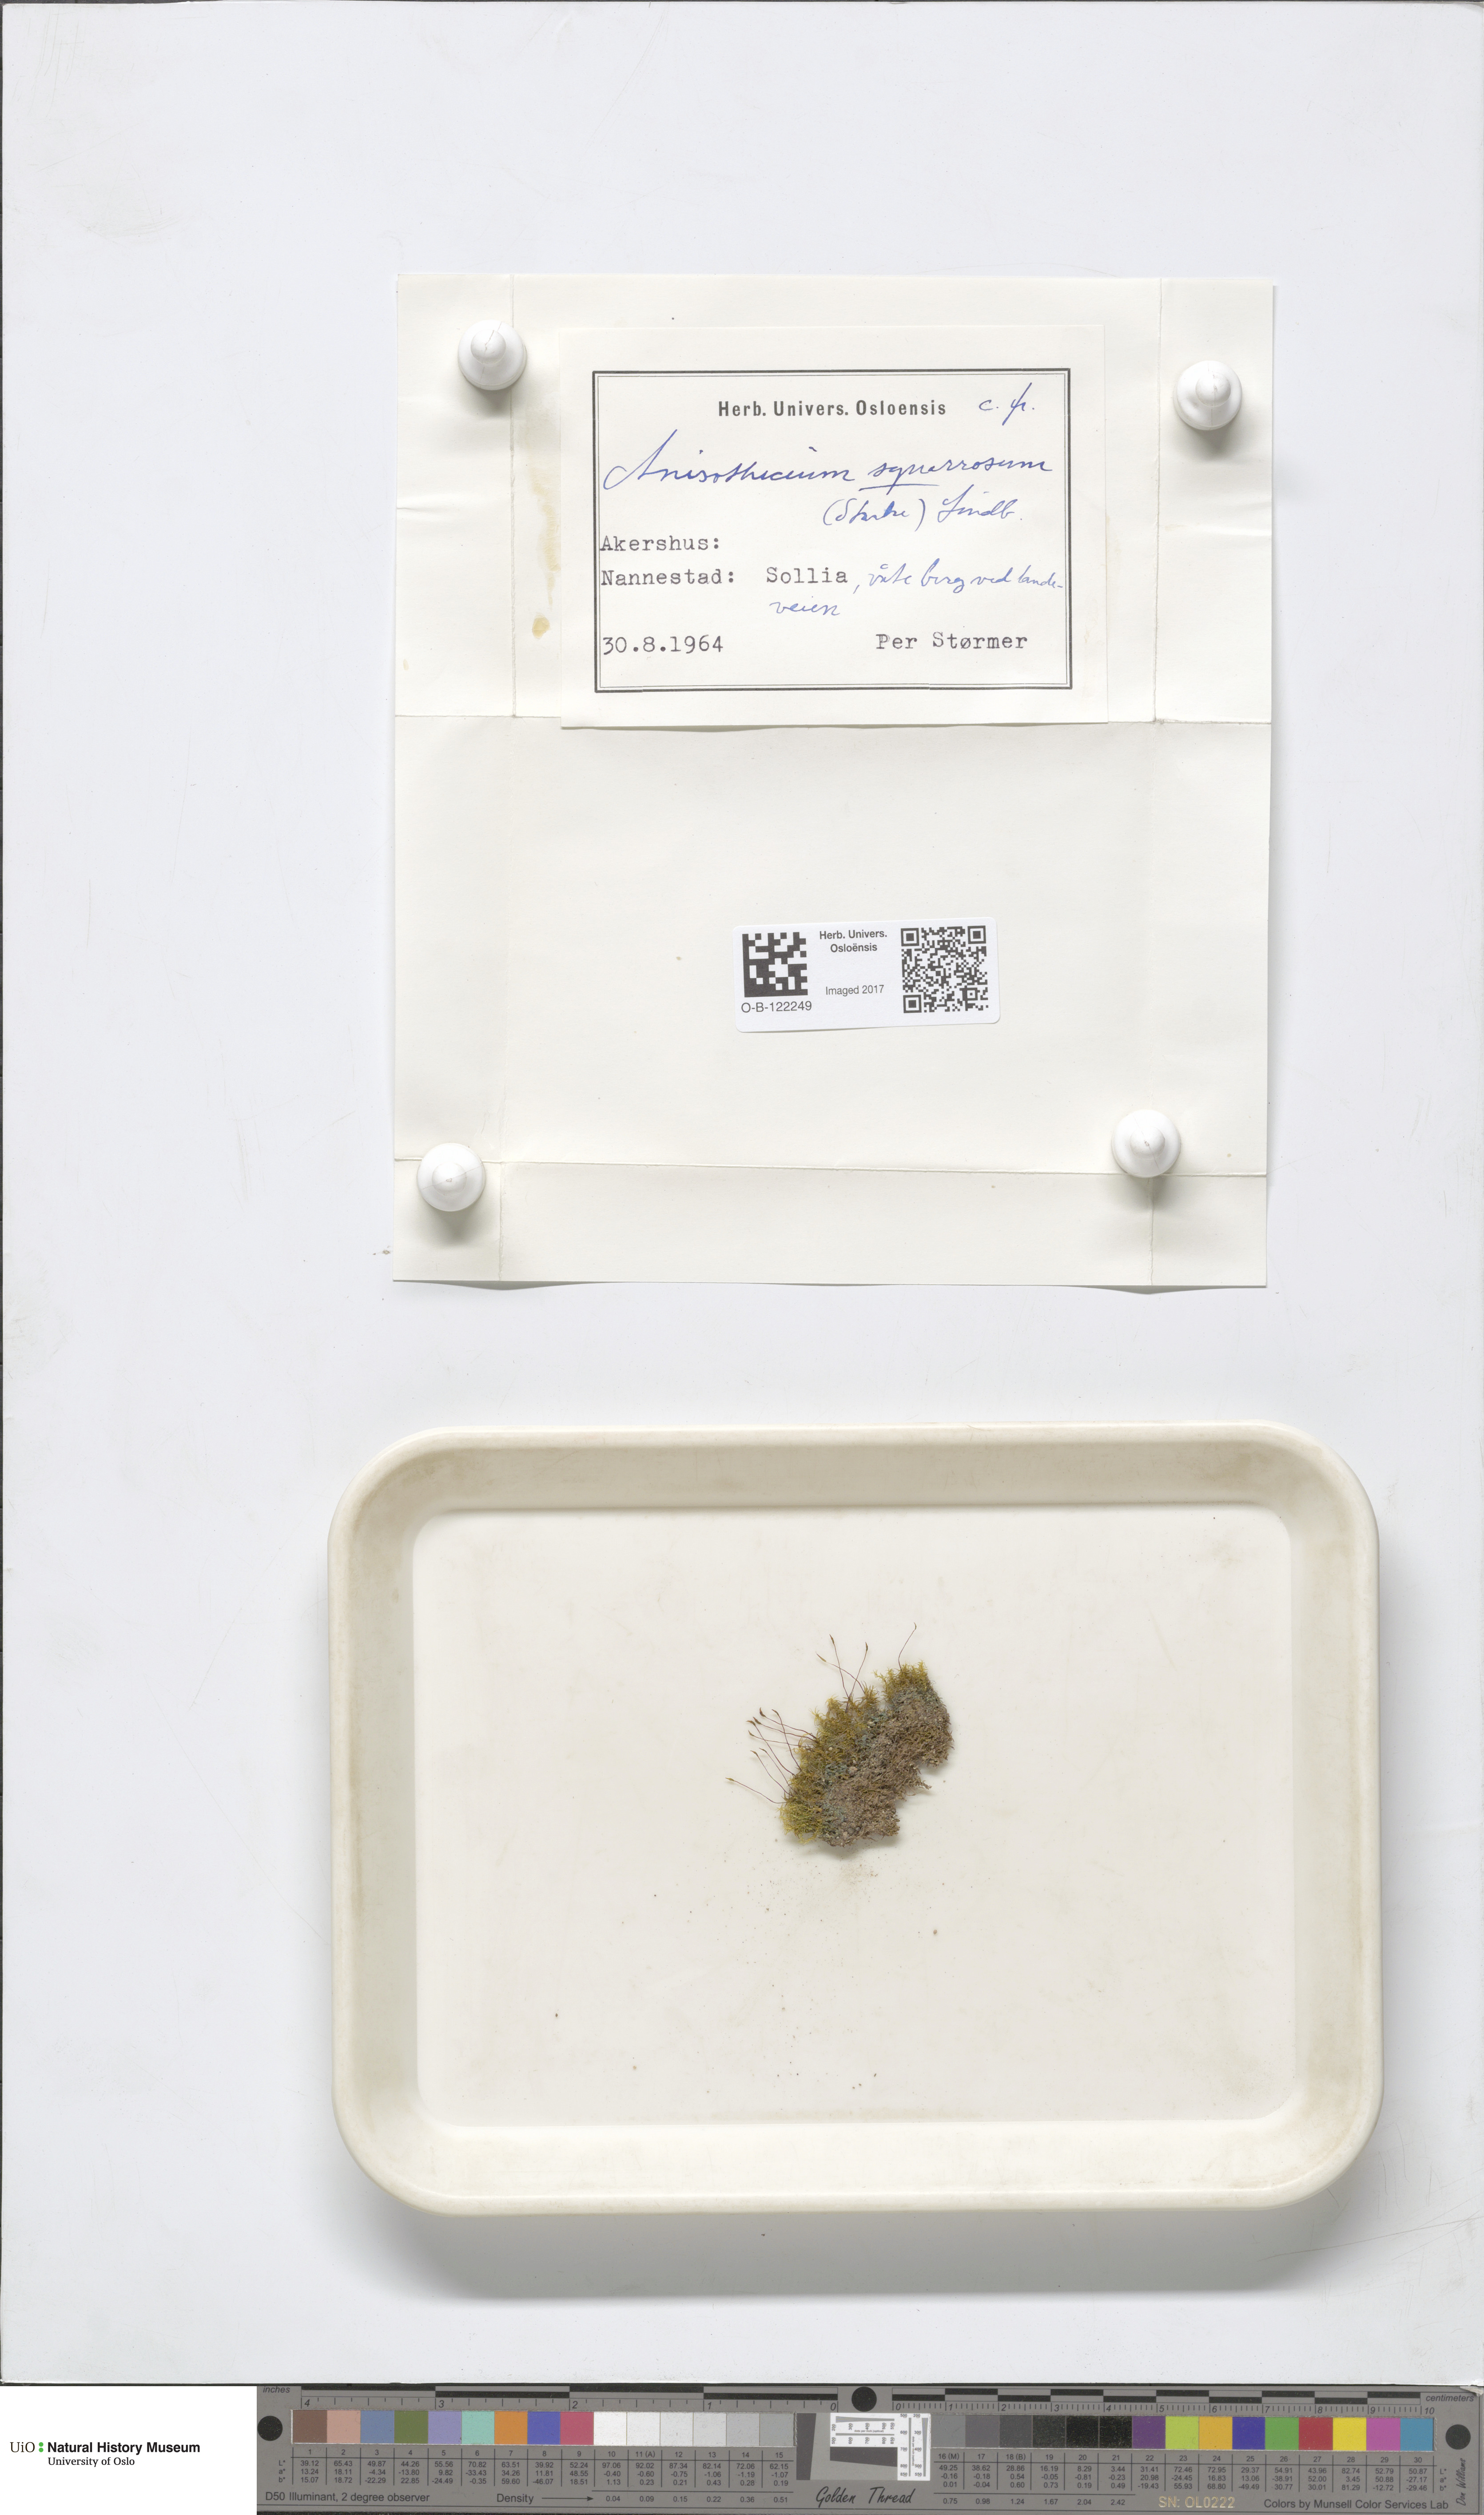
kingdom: Plantae
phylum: Bryophyta
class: Bryopsida
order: Dicranales
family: Aongstroemiaceae
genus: Diobelonella
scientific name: Diobelonella palustris
